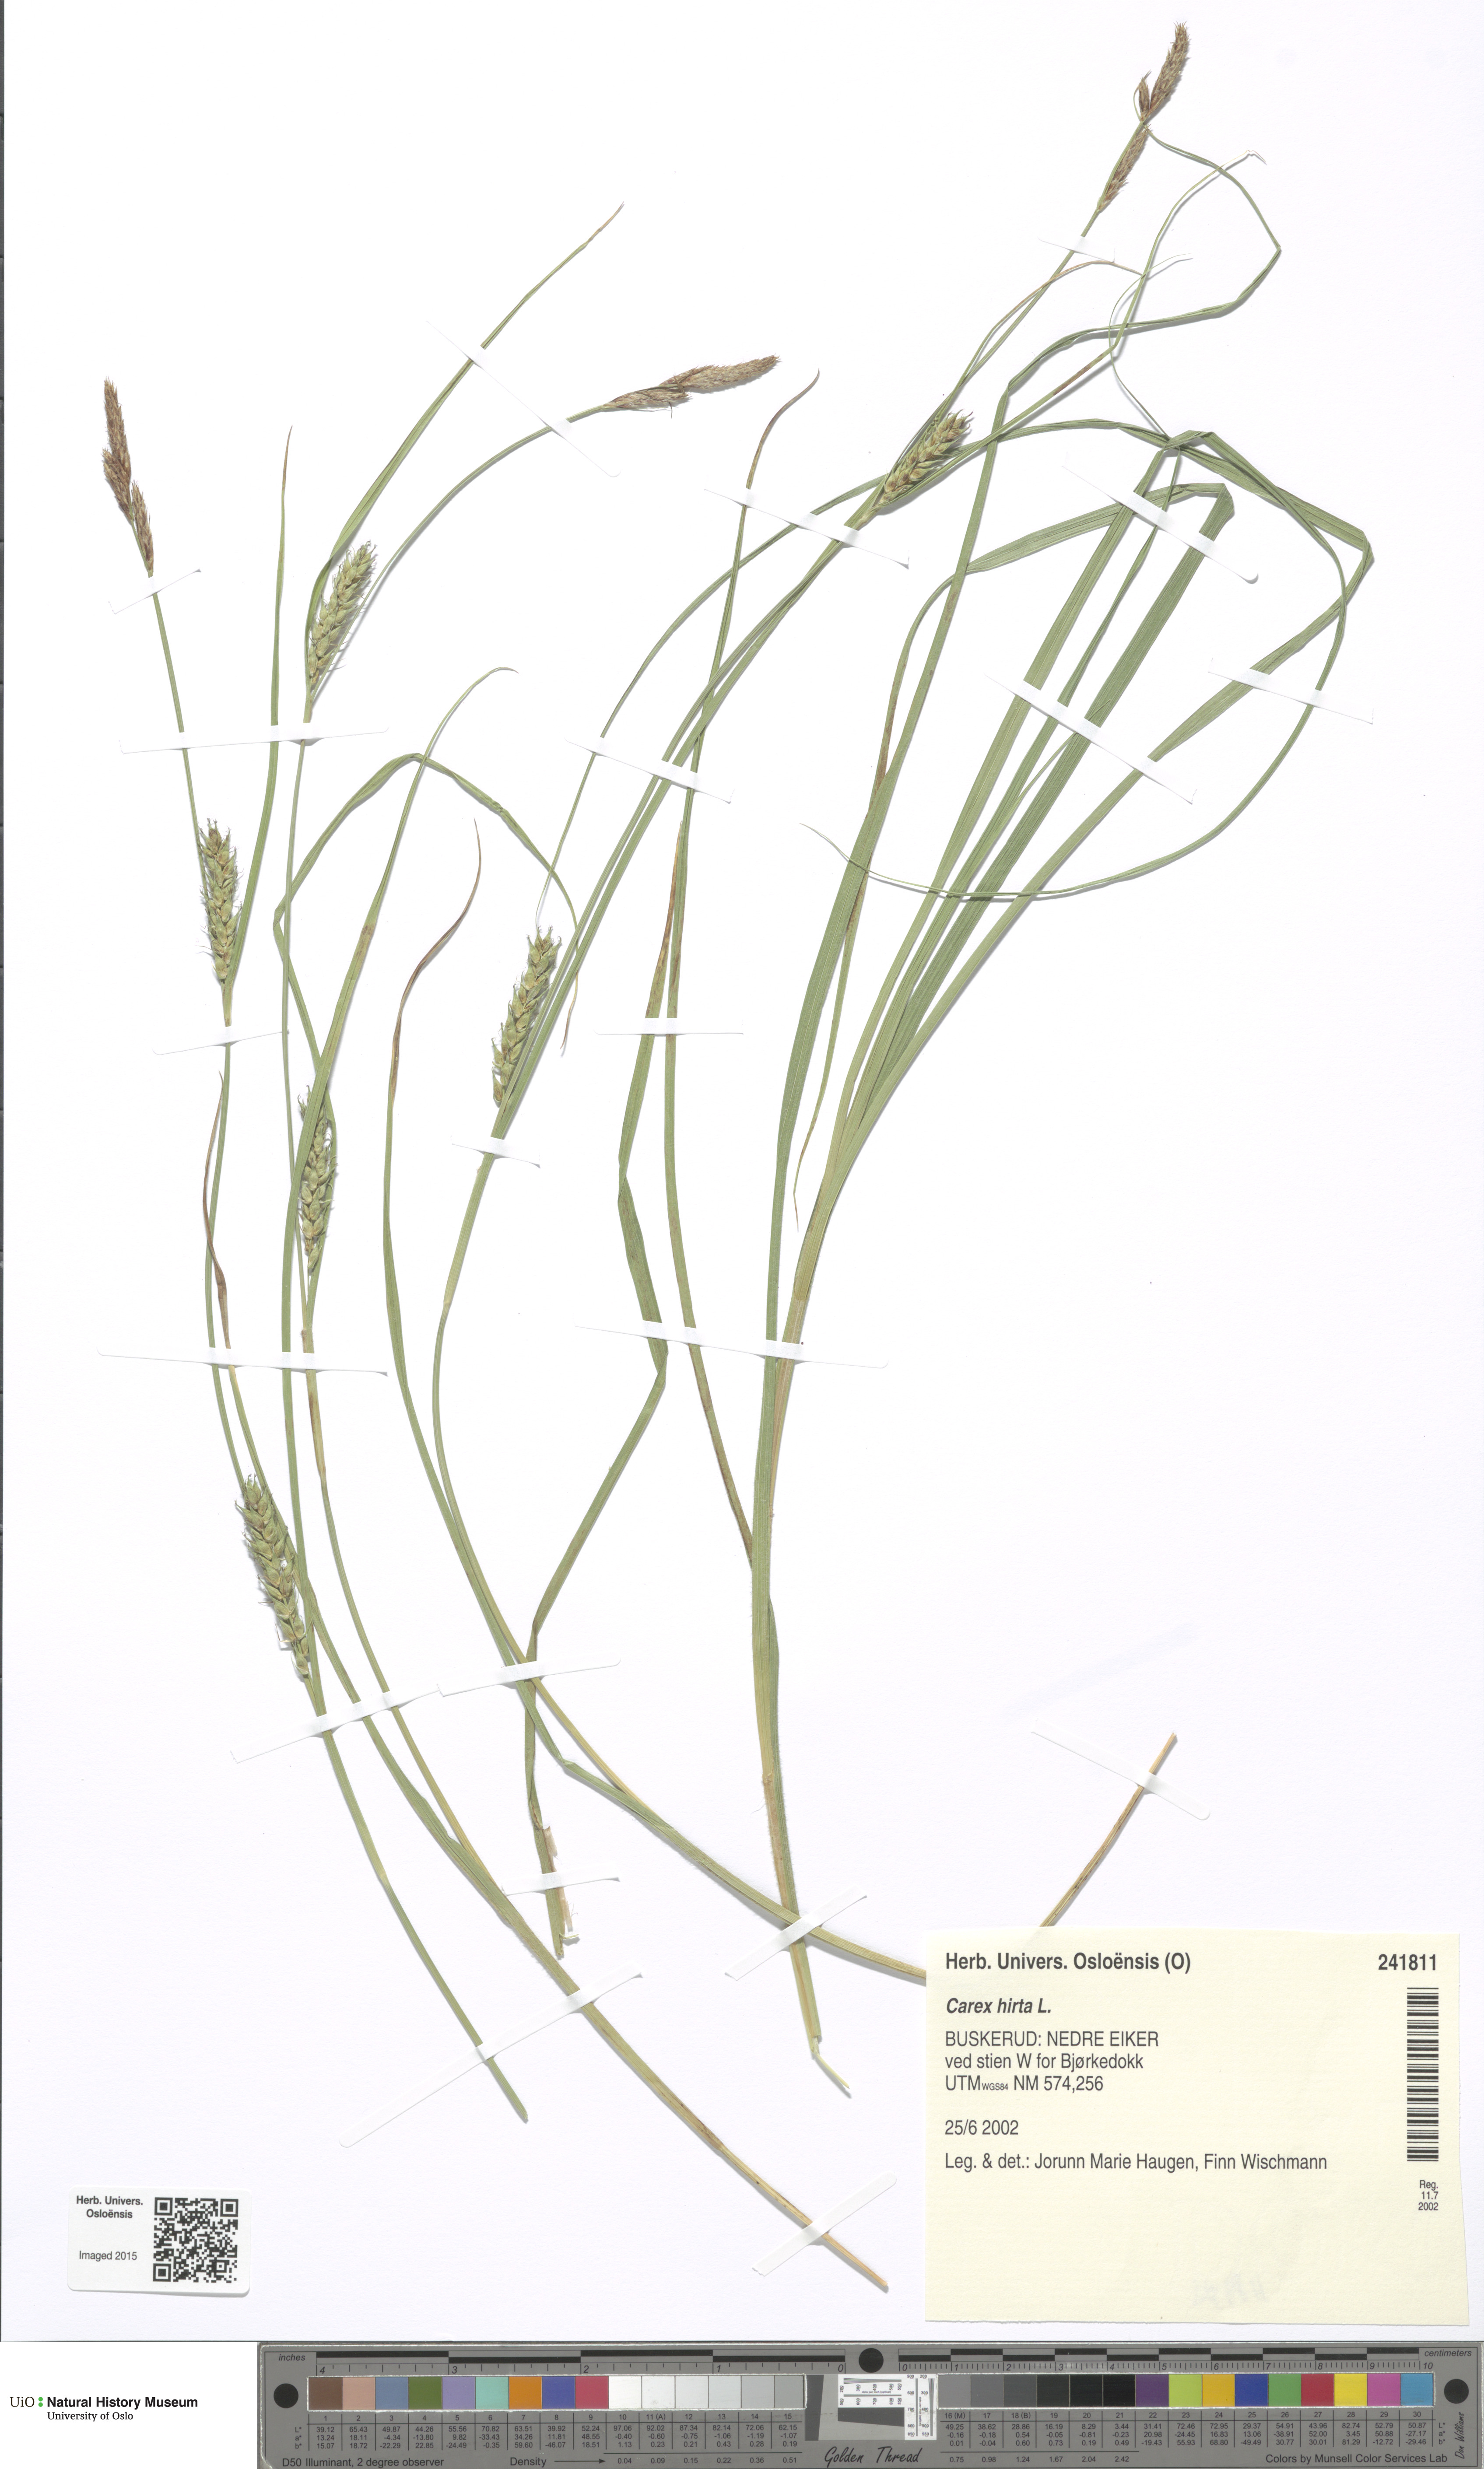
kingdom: Plantae
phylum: Tracheophyta
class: Liliopsida
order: Poales
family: Cyperaceae
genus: Carex
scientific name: Carex hirta
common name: Hairy sedge
